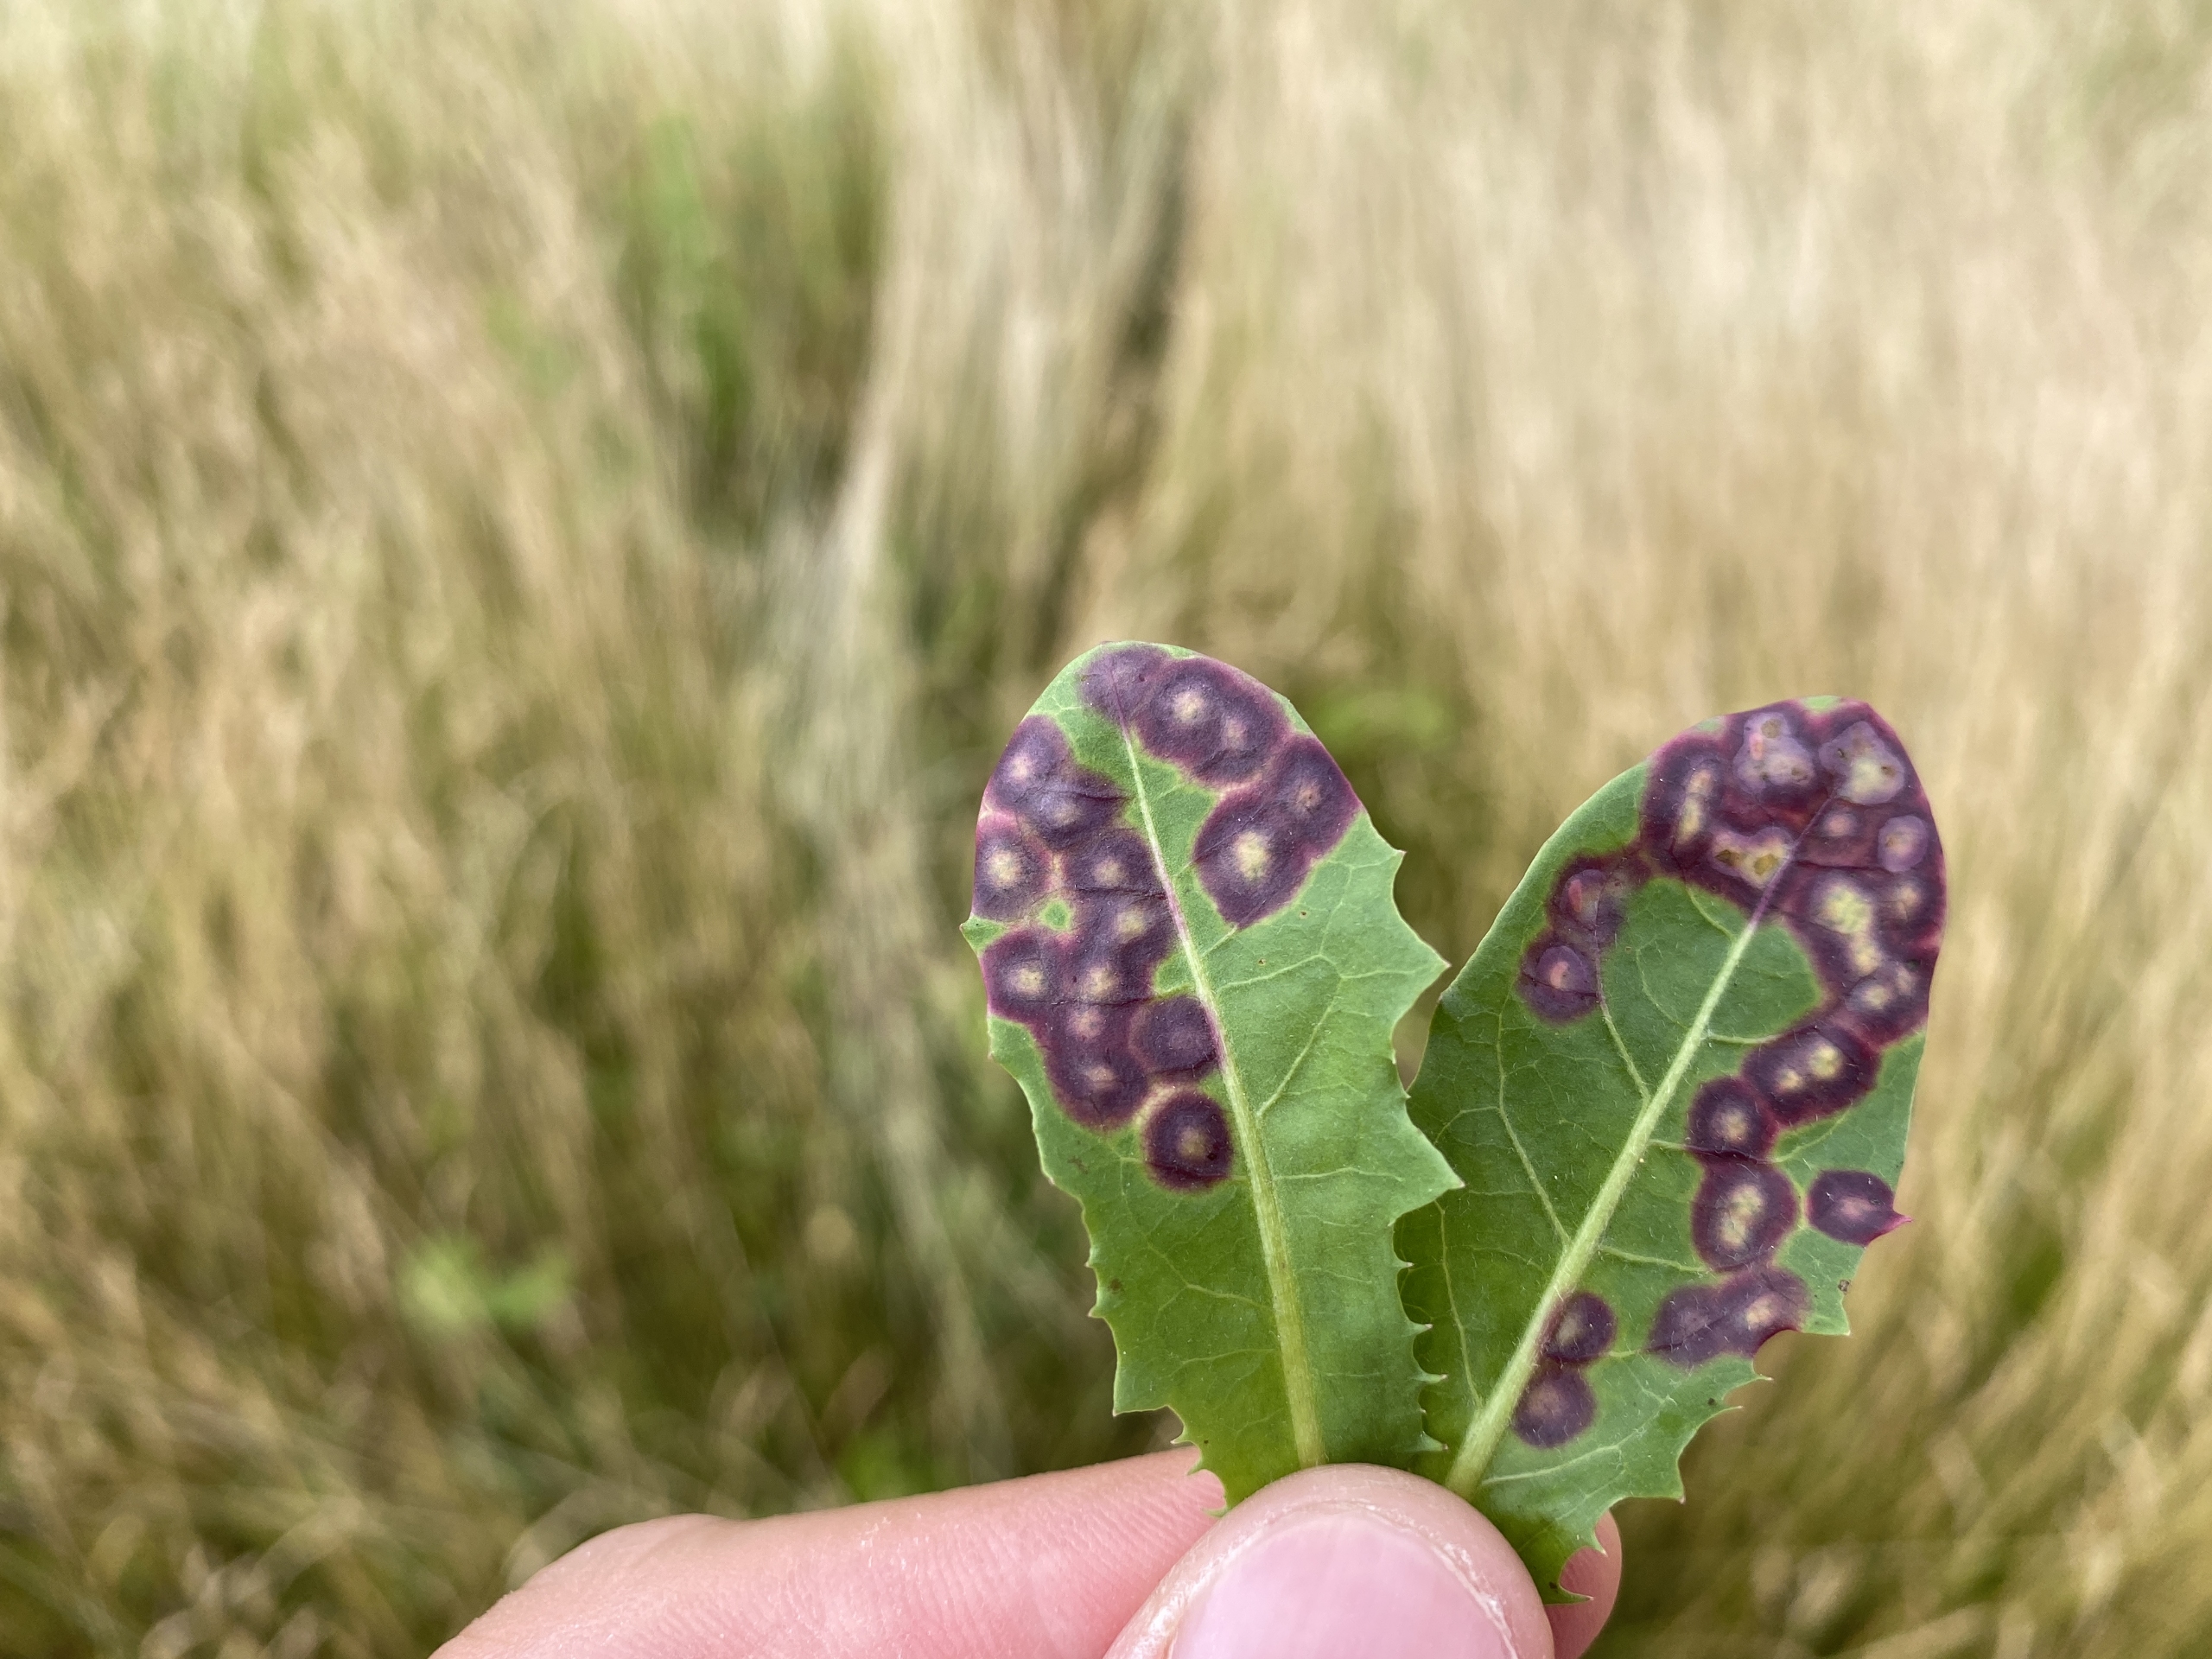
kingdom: Animalia
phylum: Arthropoda
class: Insecta
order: Diptera
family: Cecidomyiidae
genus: Cystiphora
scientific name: Cystiphora taraxaci
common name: Mælkebøttegalmyg
